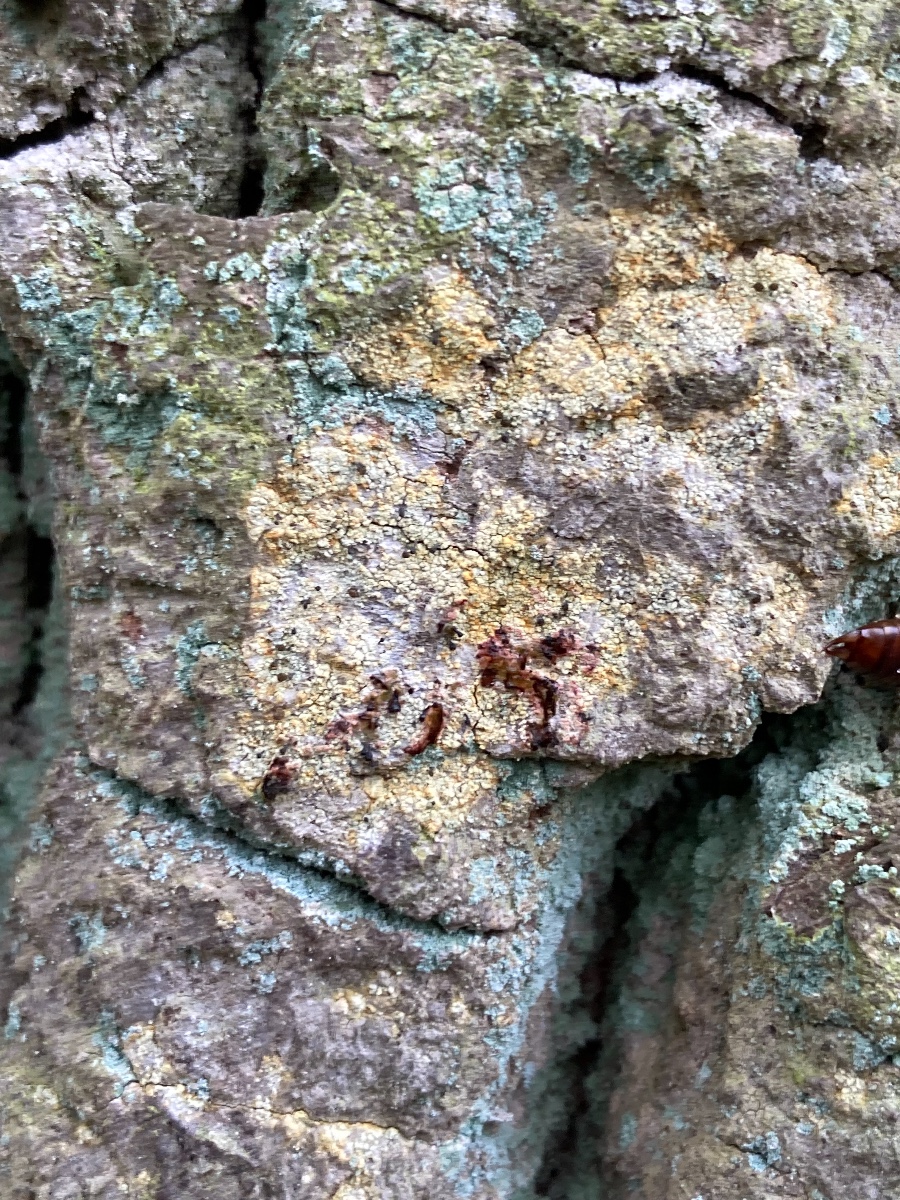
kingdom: Fungi
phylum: Ascomycota
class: Coniocybomycetes
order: Coniocybales
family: Coniocybaceae
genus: Chaenotheca
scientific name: Chaenotheca ferruginea
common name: rustbrun knappenålslav
